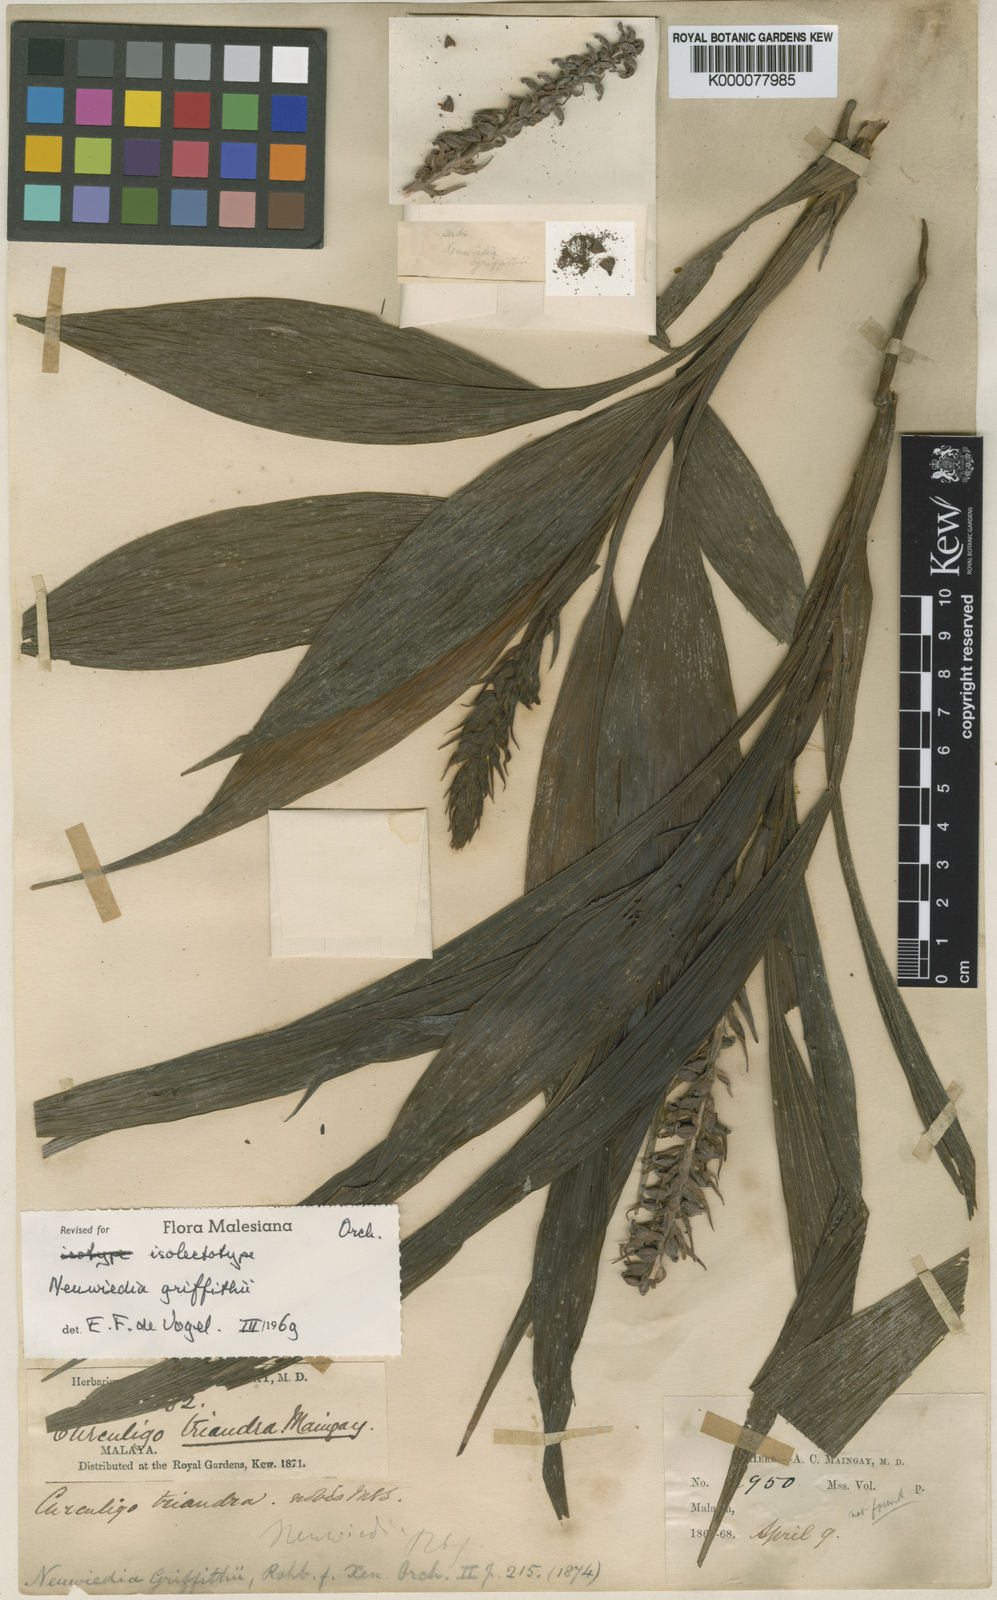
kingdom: Plantae
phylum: Tracheophyta
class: Liliopsida
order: Asparagales
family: Orchidaceae
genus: Neuwiedia
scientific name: Neuwiedia griffithii
